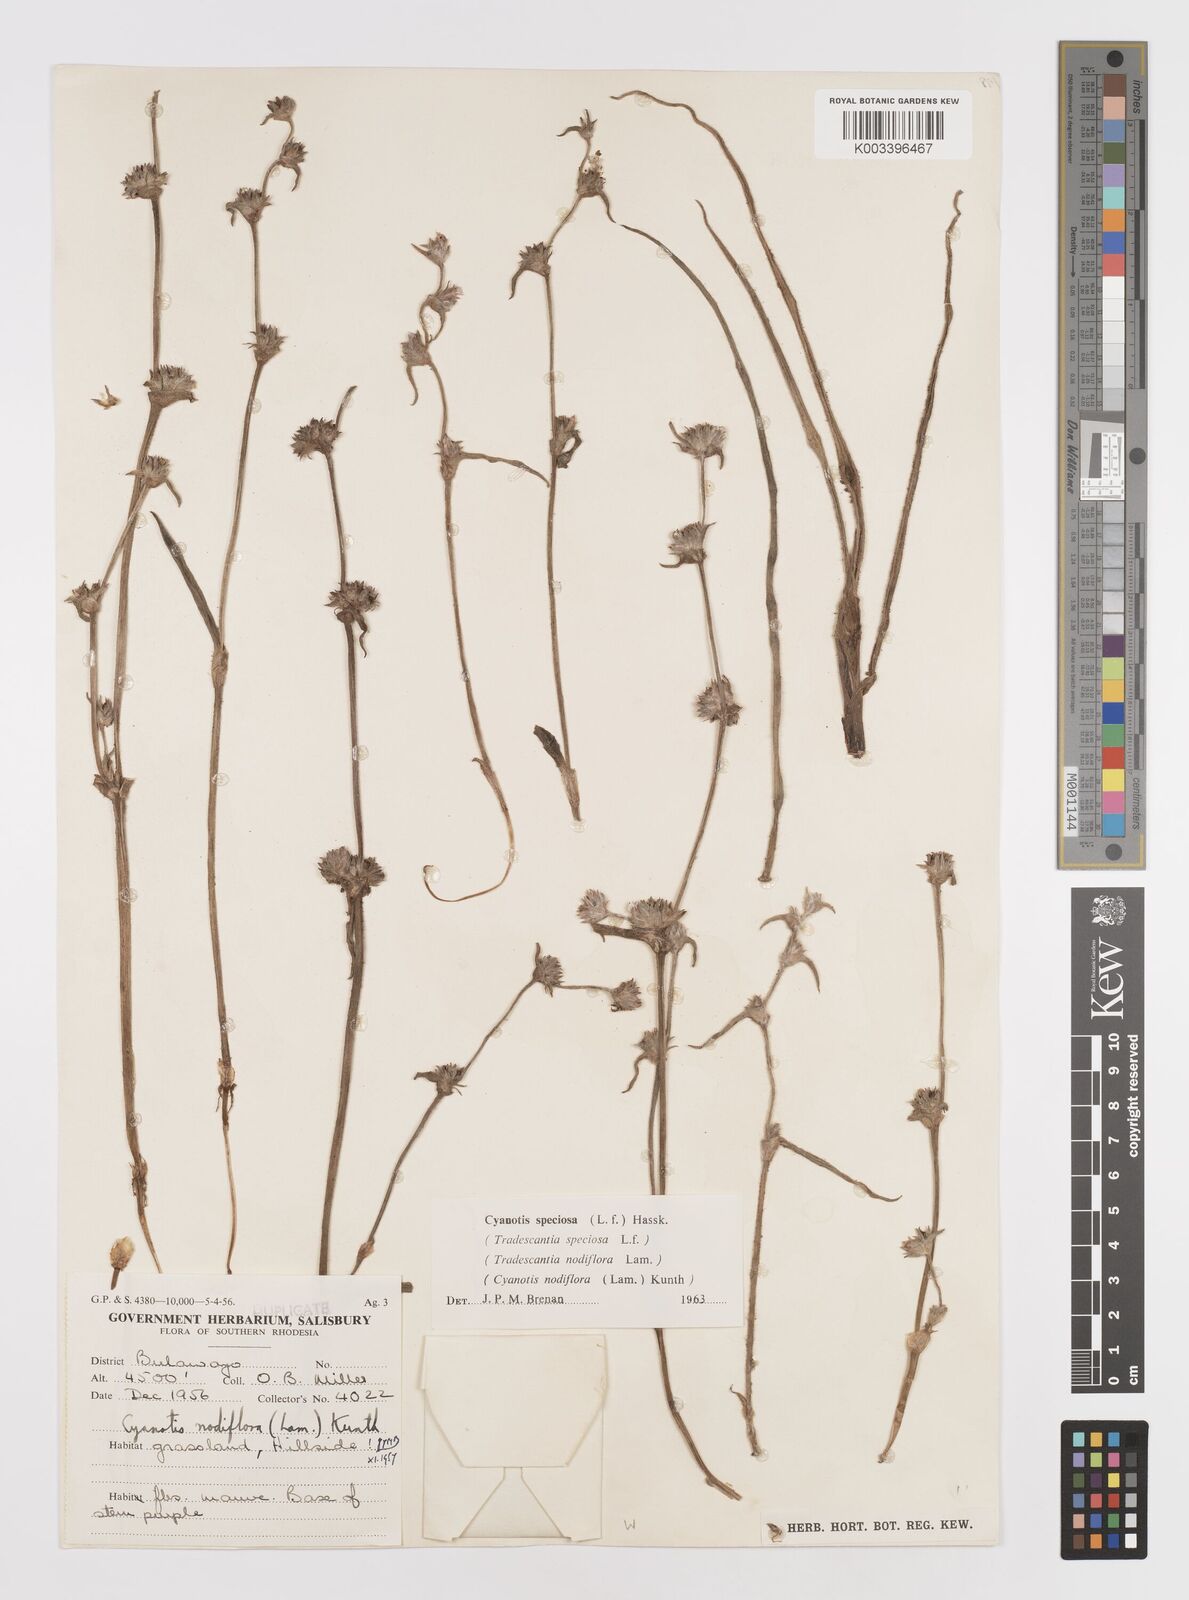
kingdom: Plantae
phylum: Tracheophyta
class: Liliopsida
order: Commelinales
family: Commelinaceae
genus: Cyanotis
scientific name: Cyanotis speciosa
